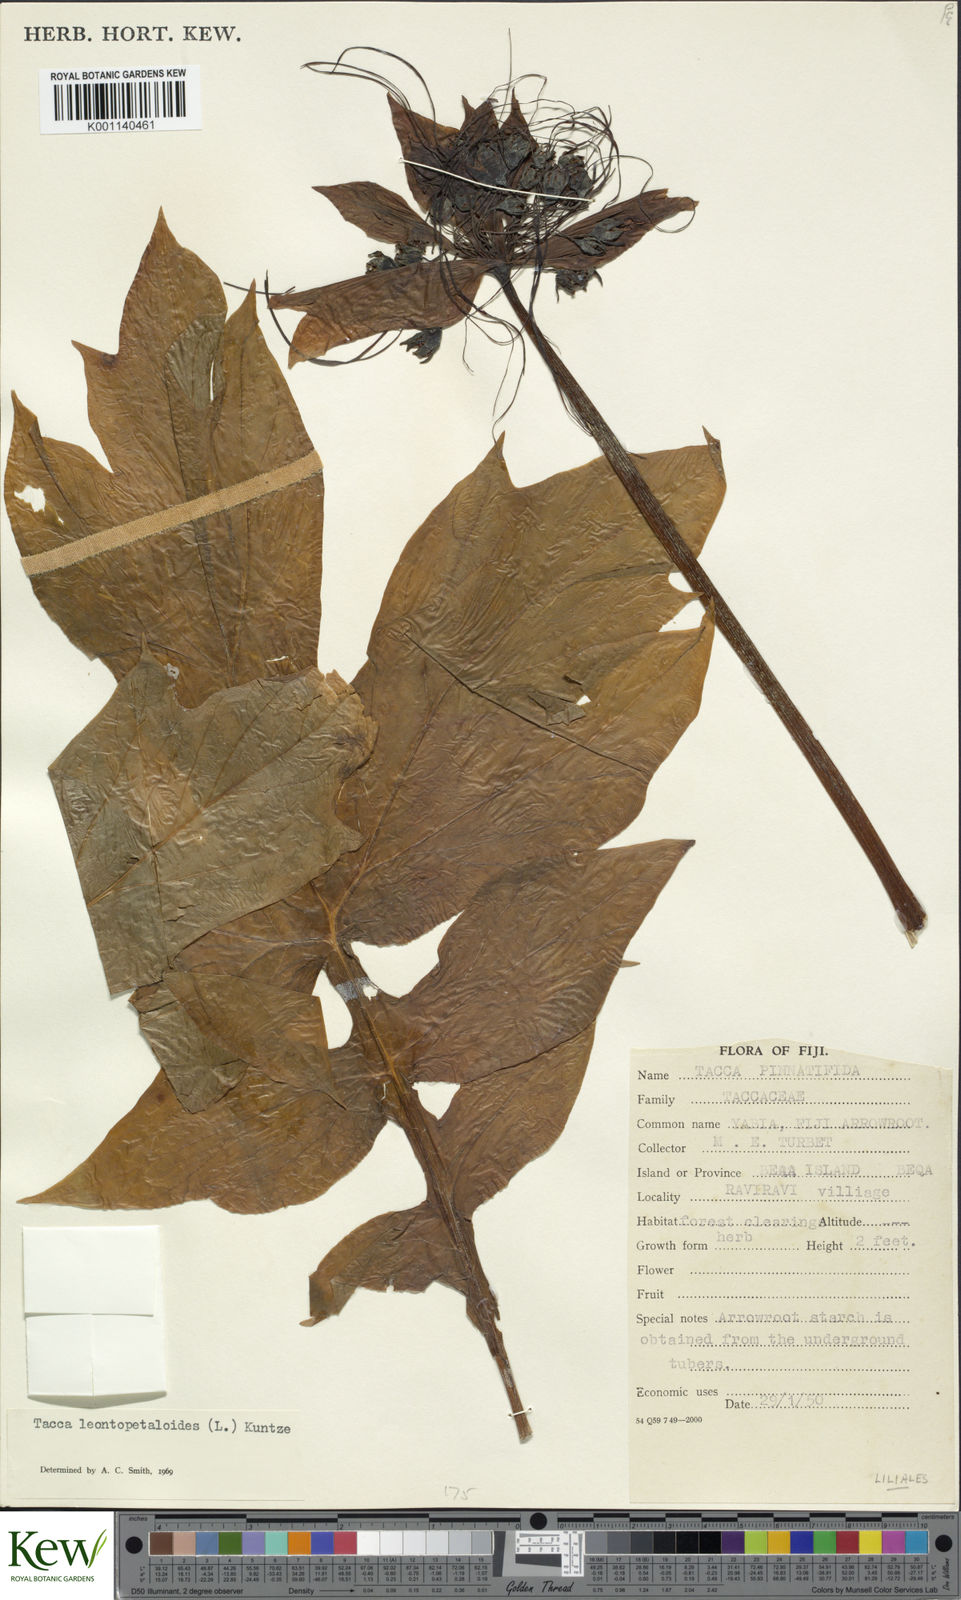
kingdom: Plantae
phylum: Tracheophyta
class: Liliopsida
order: Dioscoreales
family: Dioscoreaceae
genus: Tacca
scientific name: Tacca leontopetaloides
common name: Arrowroot
